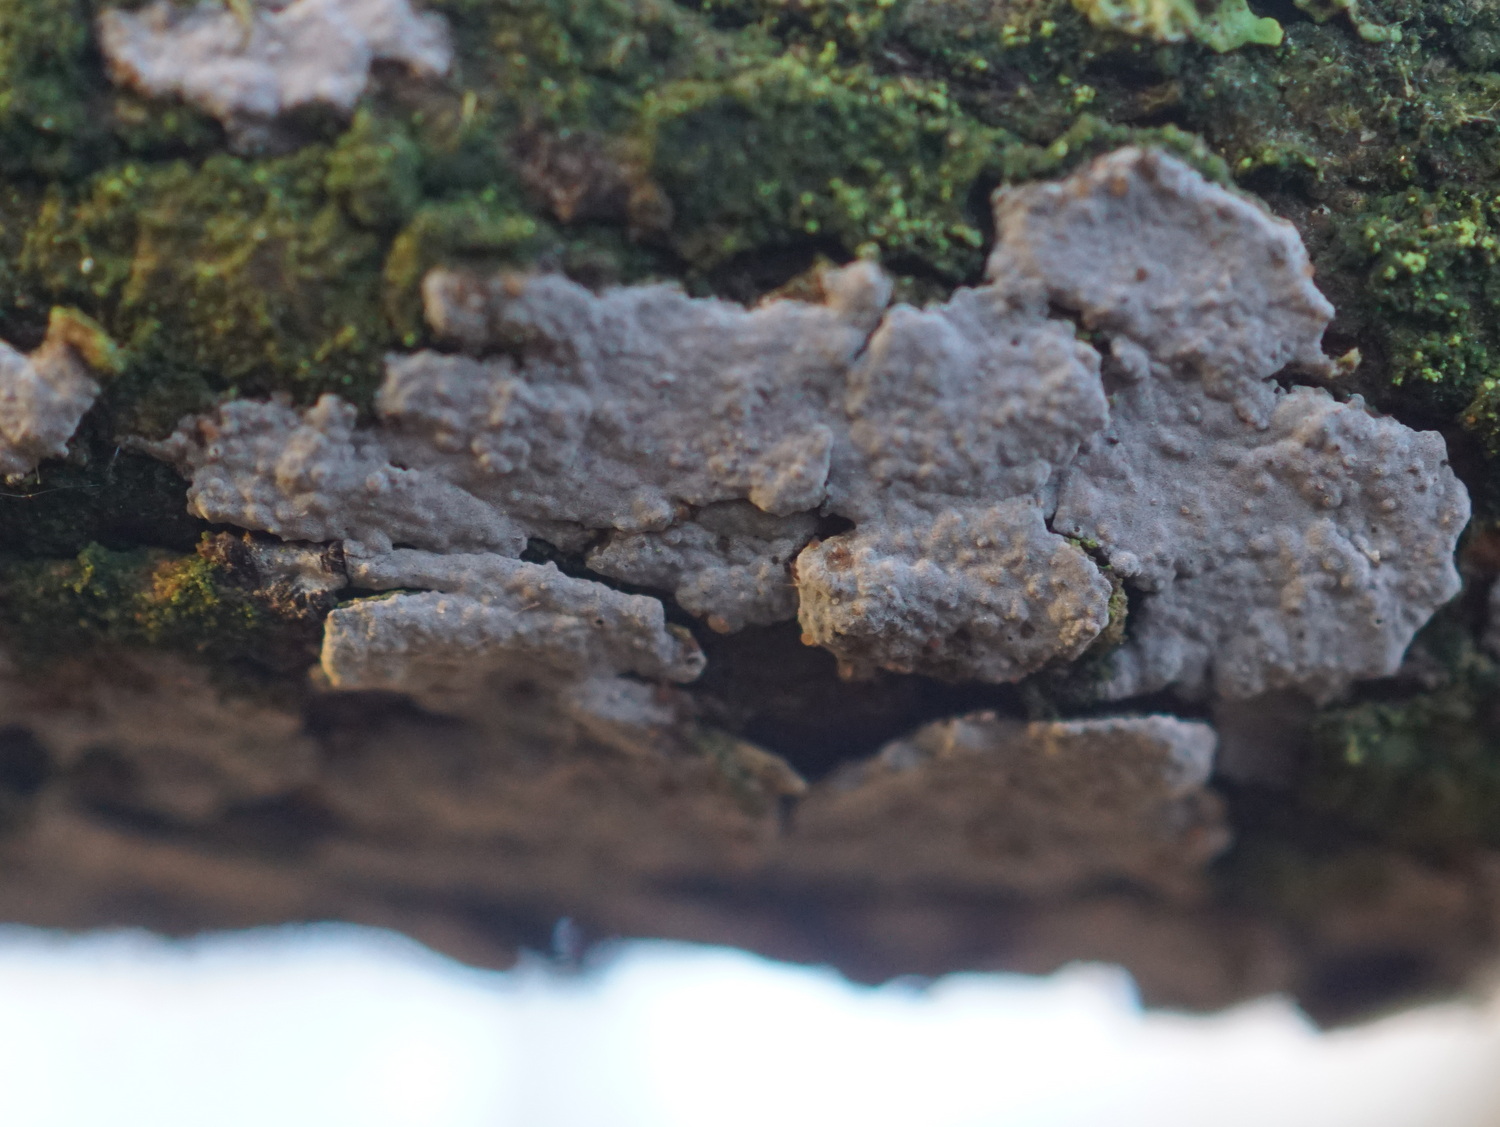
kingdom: Fungi
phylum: Basidiomycota
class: Agaricomycetes
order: Russulales
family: Peniophoraceae
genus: Peniophora
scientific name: Peniophora lycii
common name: grynet voksskind
